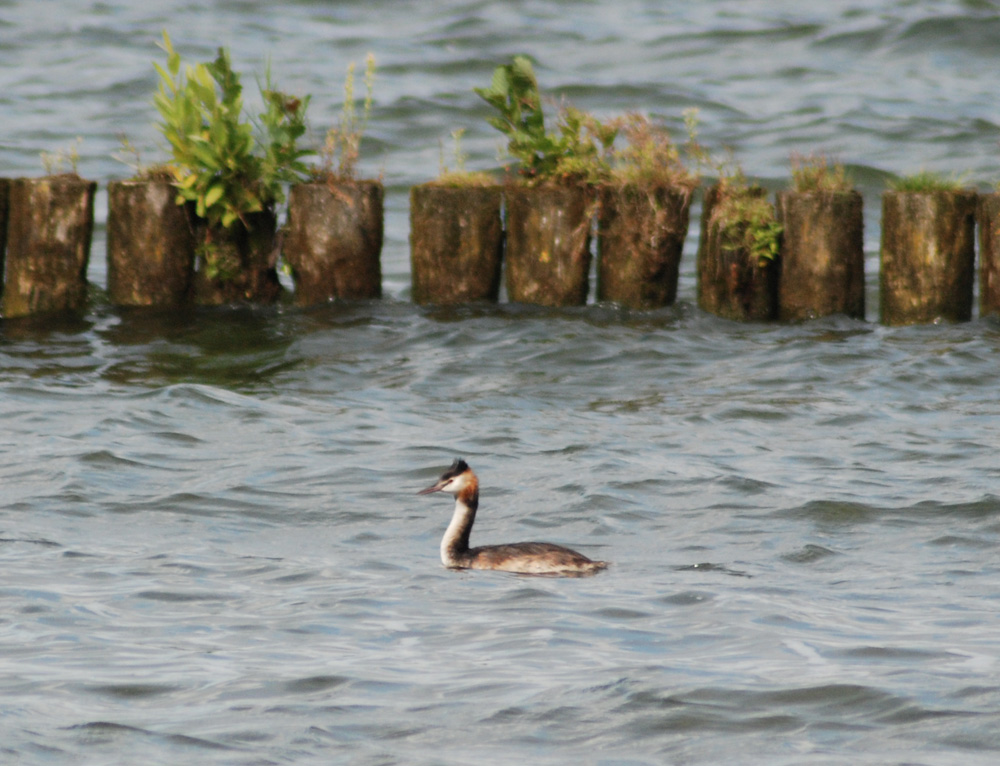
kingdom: Animalia
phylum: Chordata
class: Aves
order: Podicipediformes
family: Podicipedidae
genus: Podiceps
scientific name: Podiceps cristatus
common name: Great crested grebe
